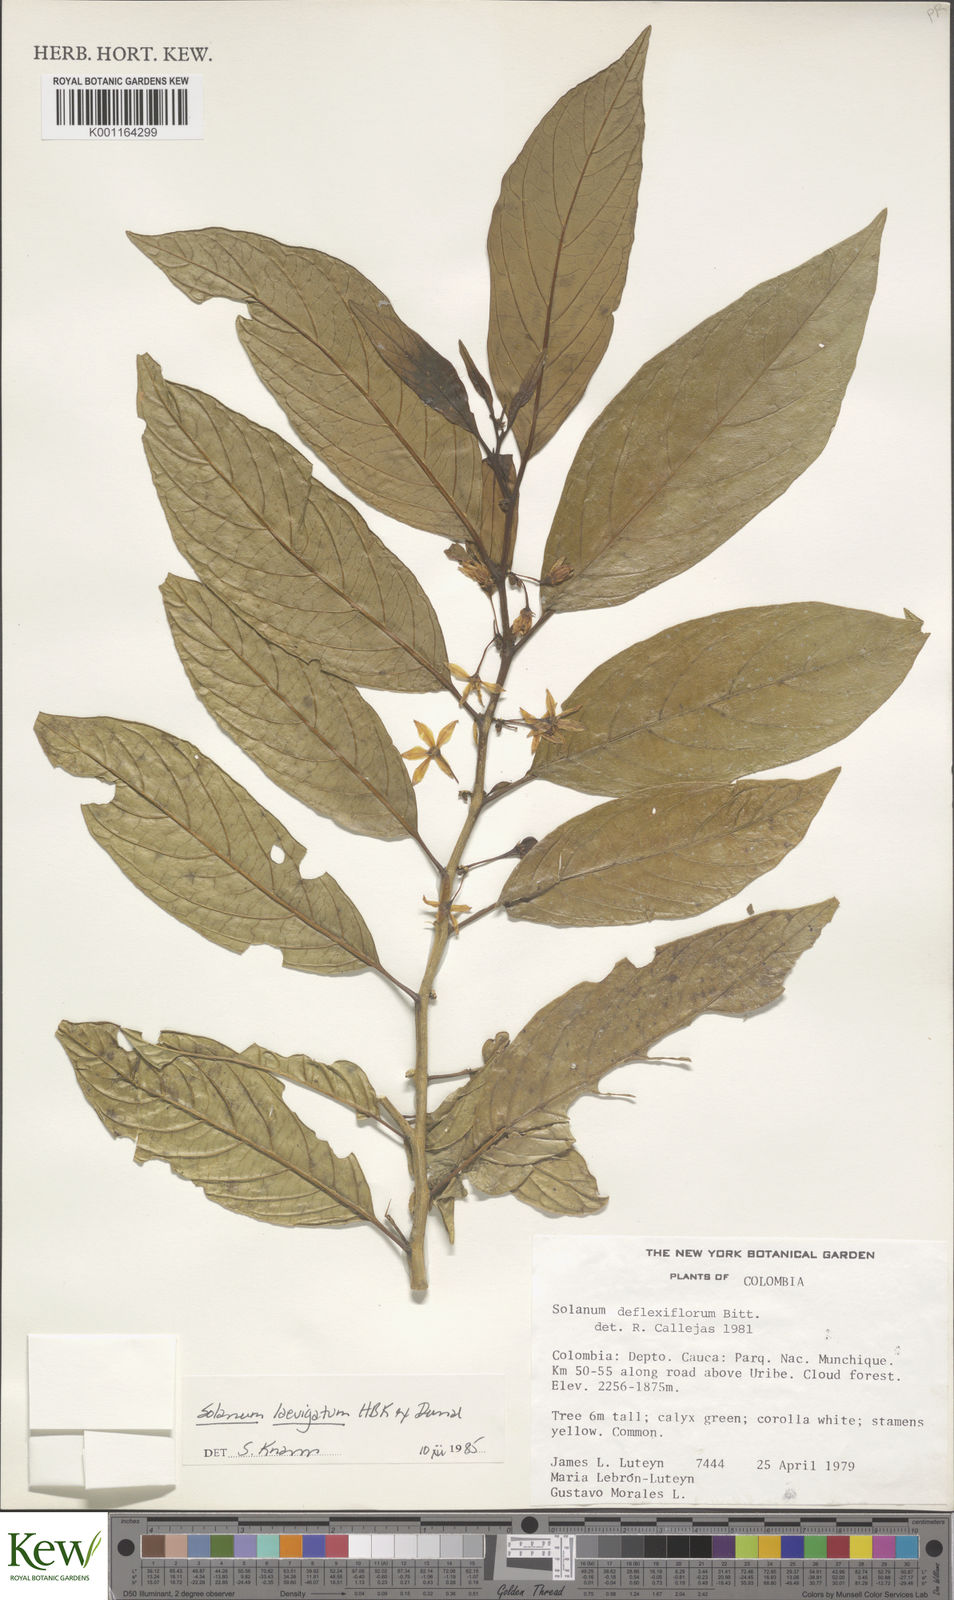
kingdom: Plantae
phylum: Tracheophyta
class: Magnoliopsida
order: Solanales
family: Solanaceae
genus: Solanum
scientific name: Solanum nudum
